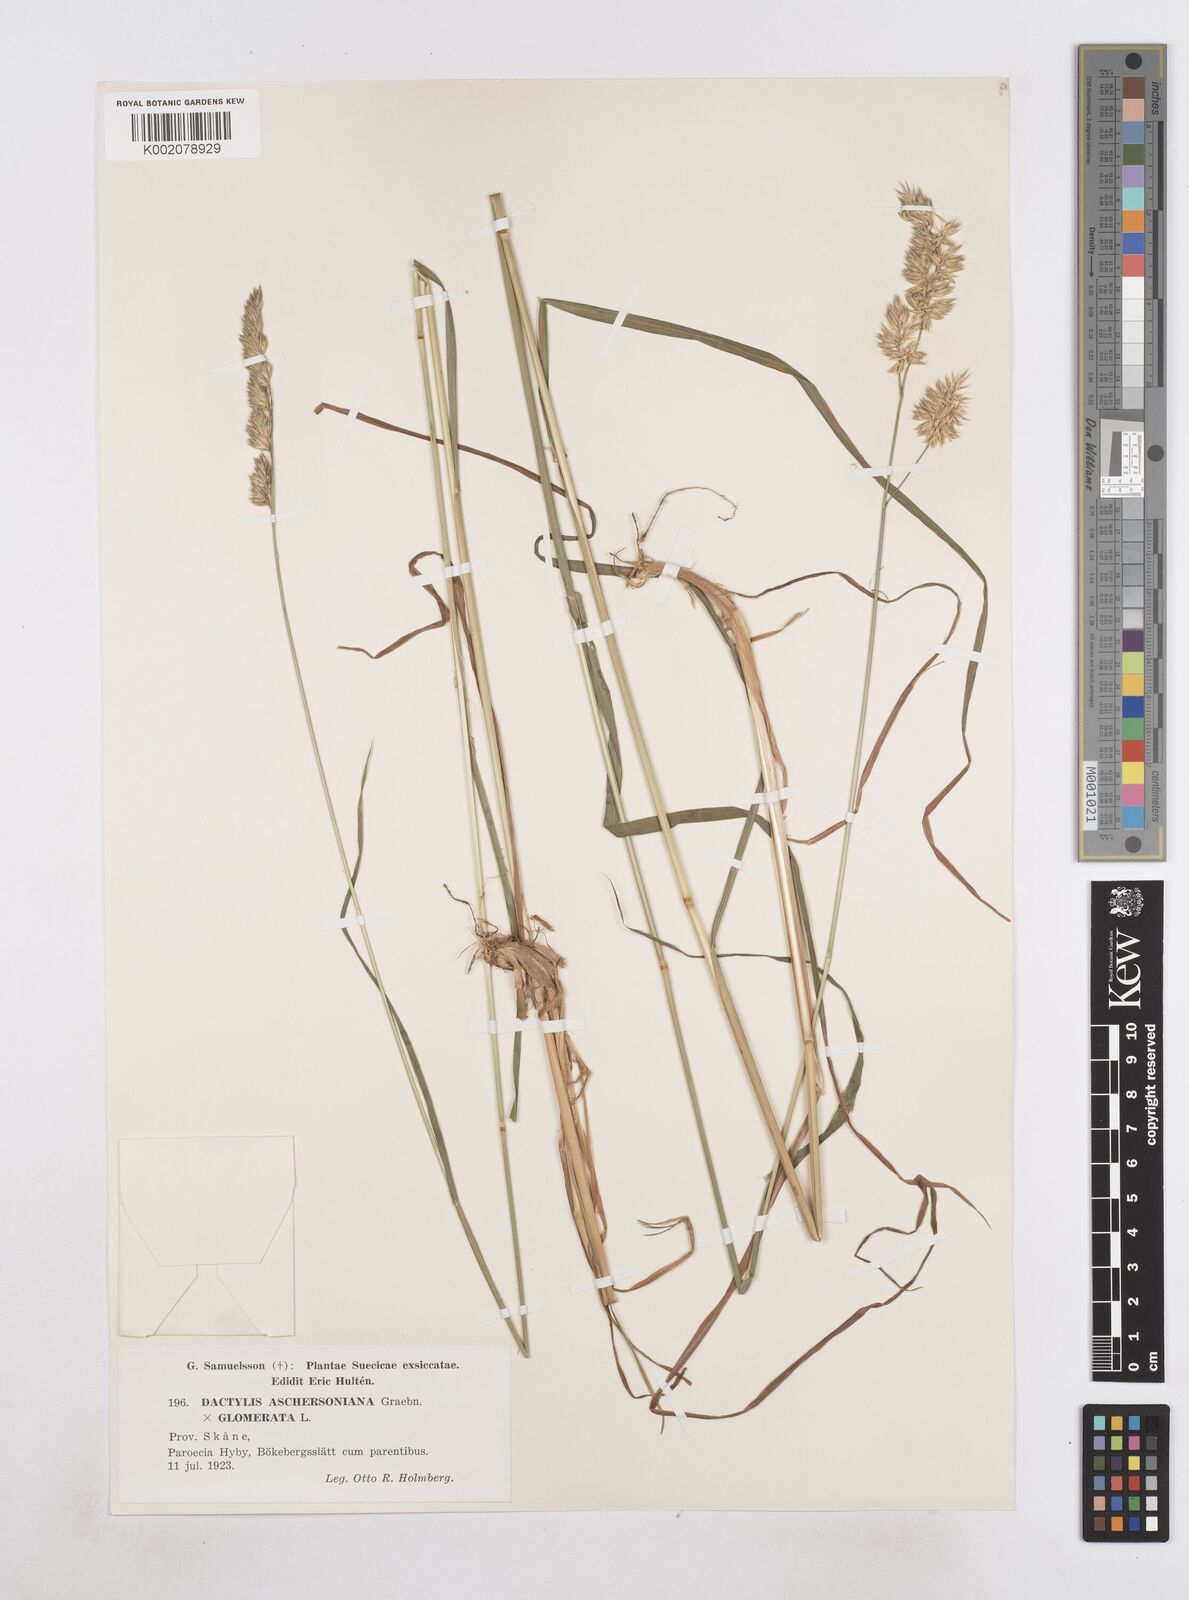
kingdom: Plantae
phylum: Tracheophyta
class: Liliopsida
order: Poales
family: Poaceae
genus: Dactylis
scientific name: Dactylis glomerata
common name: Orchardgrass
